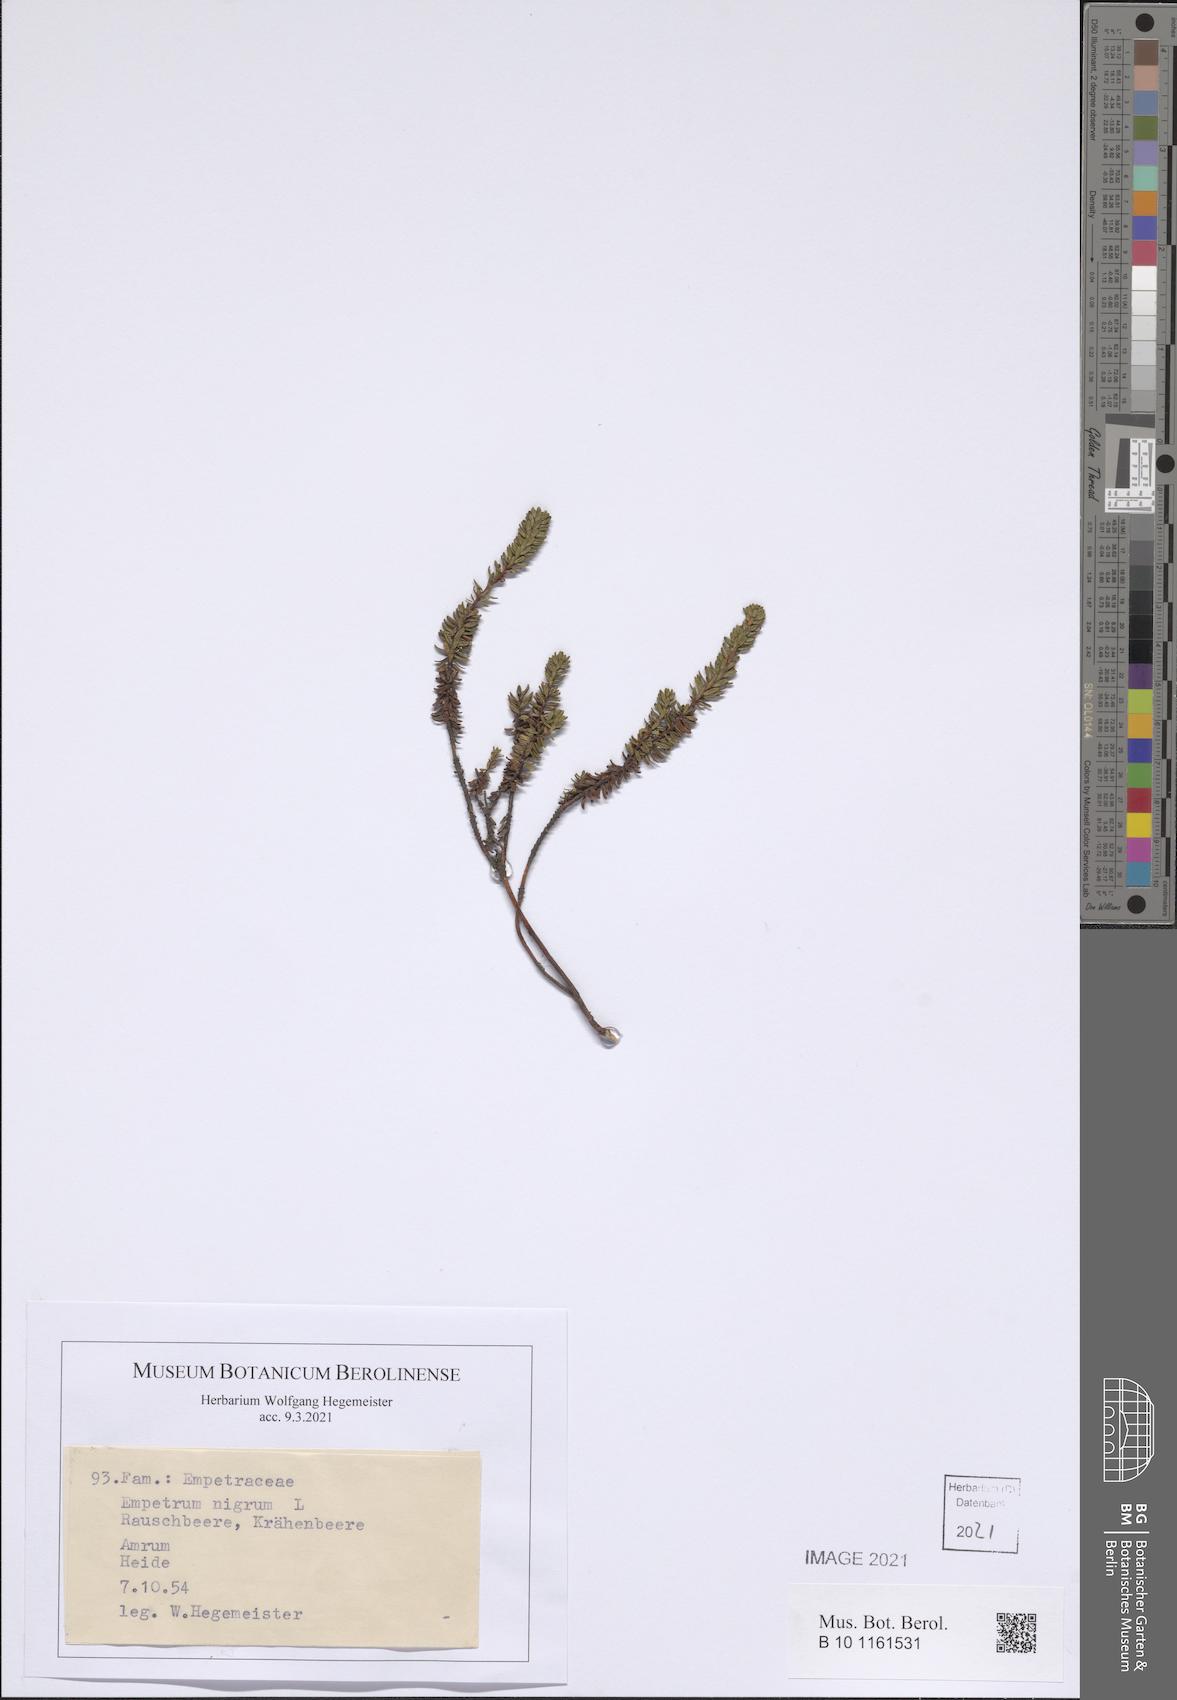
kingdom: Plantae
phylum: Tracheophyta
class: Magnoliopsida
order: Ericales
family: Ericaceae
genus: Empetrum
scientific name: Empetrum nigrum
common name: Black crowberry
